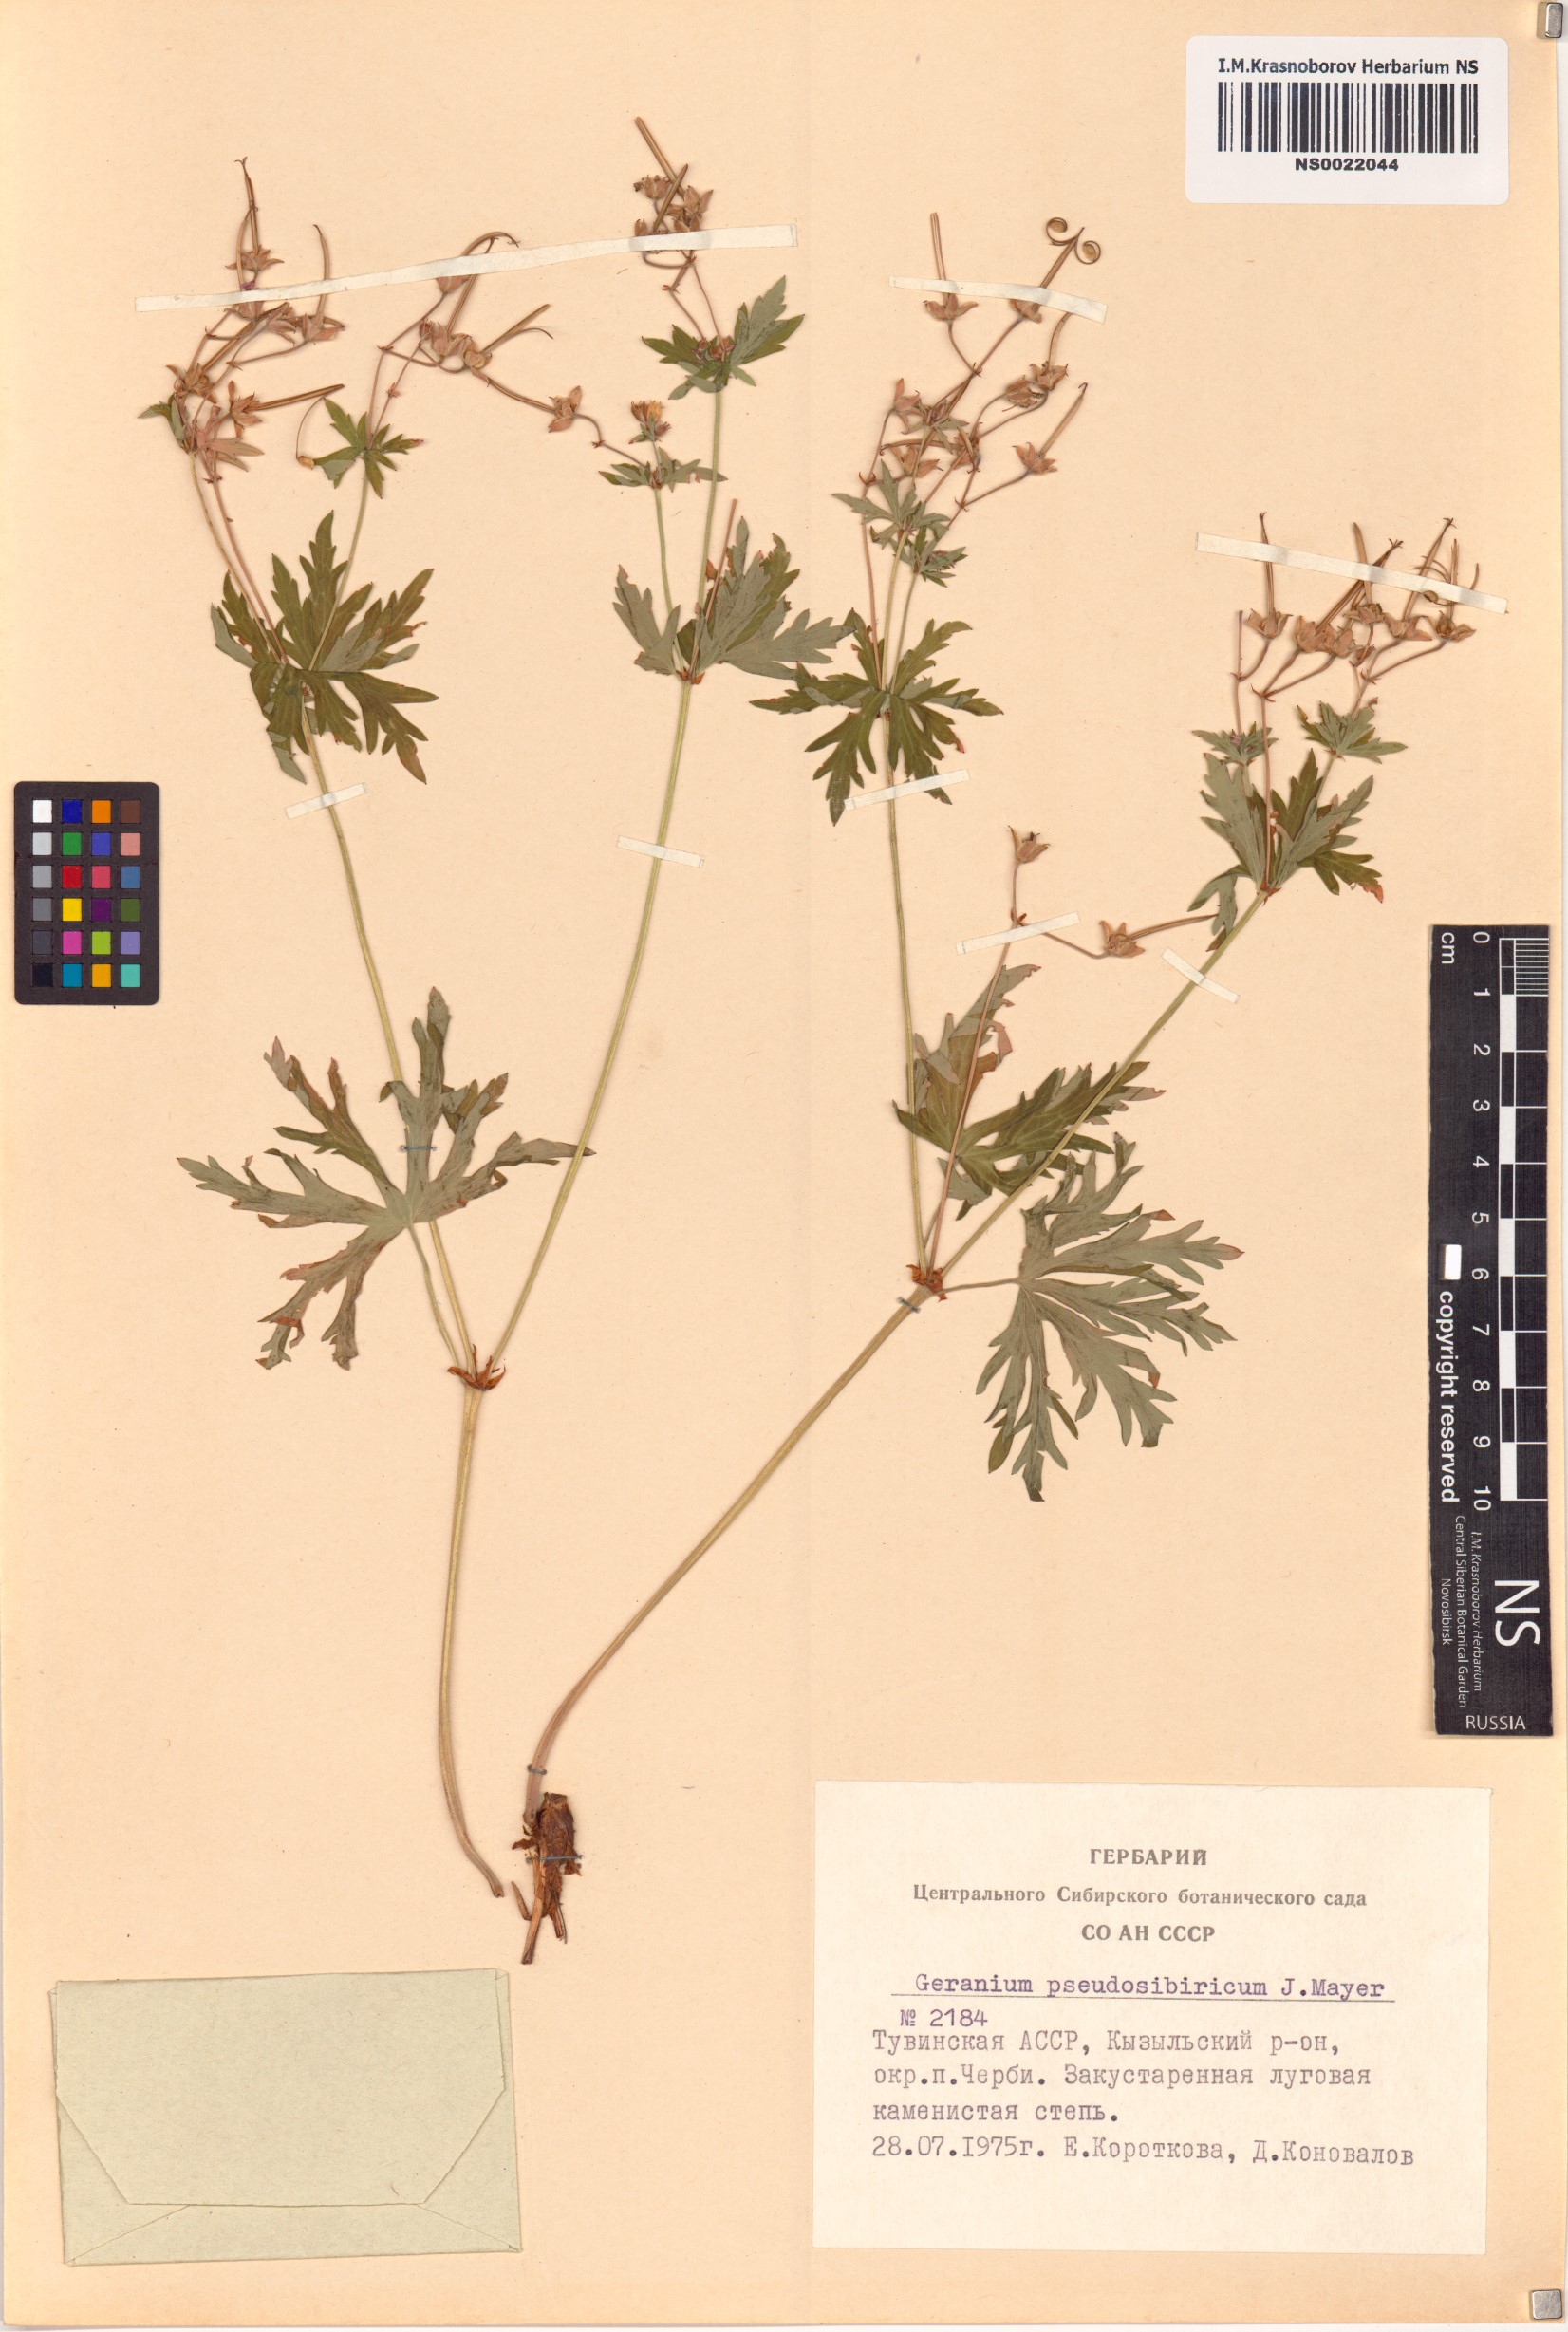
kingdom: Plantae
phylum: Tracheophyta
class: Magnoliopsida
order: Geraniales
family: Geraniaceae
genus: Geranium
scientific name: Geranium pseudosibiricum
